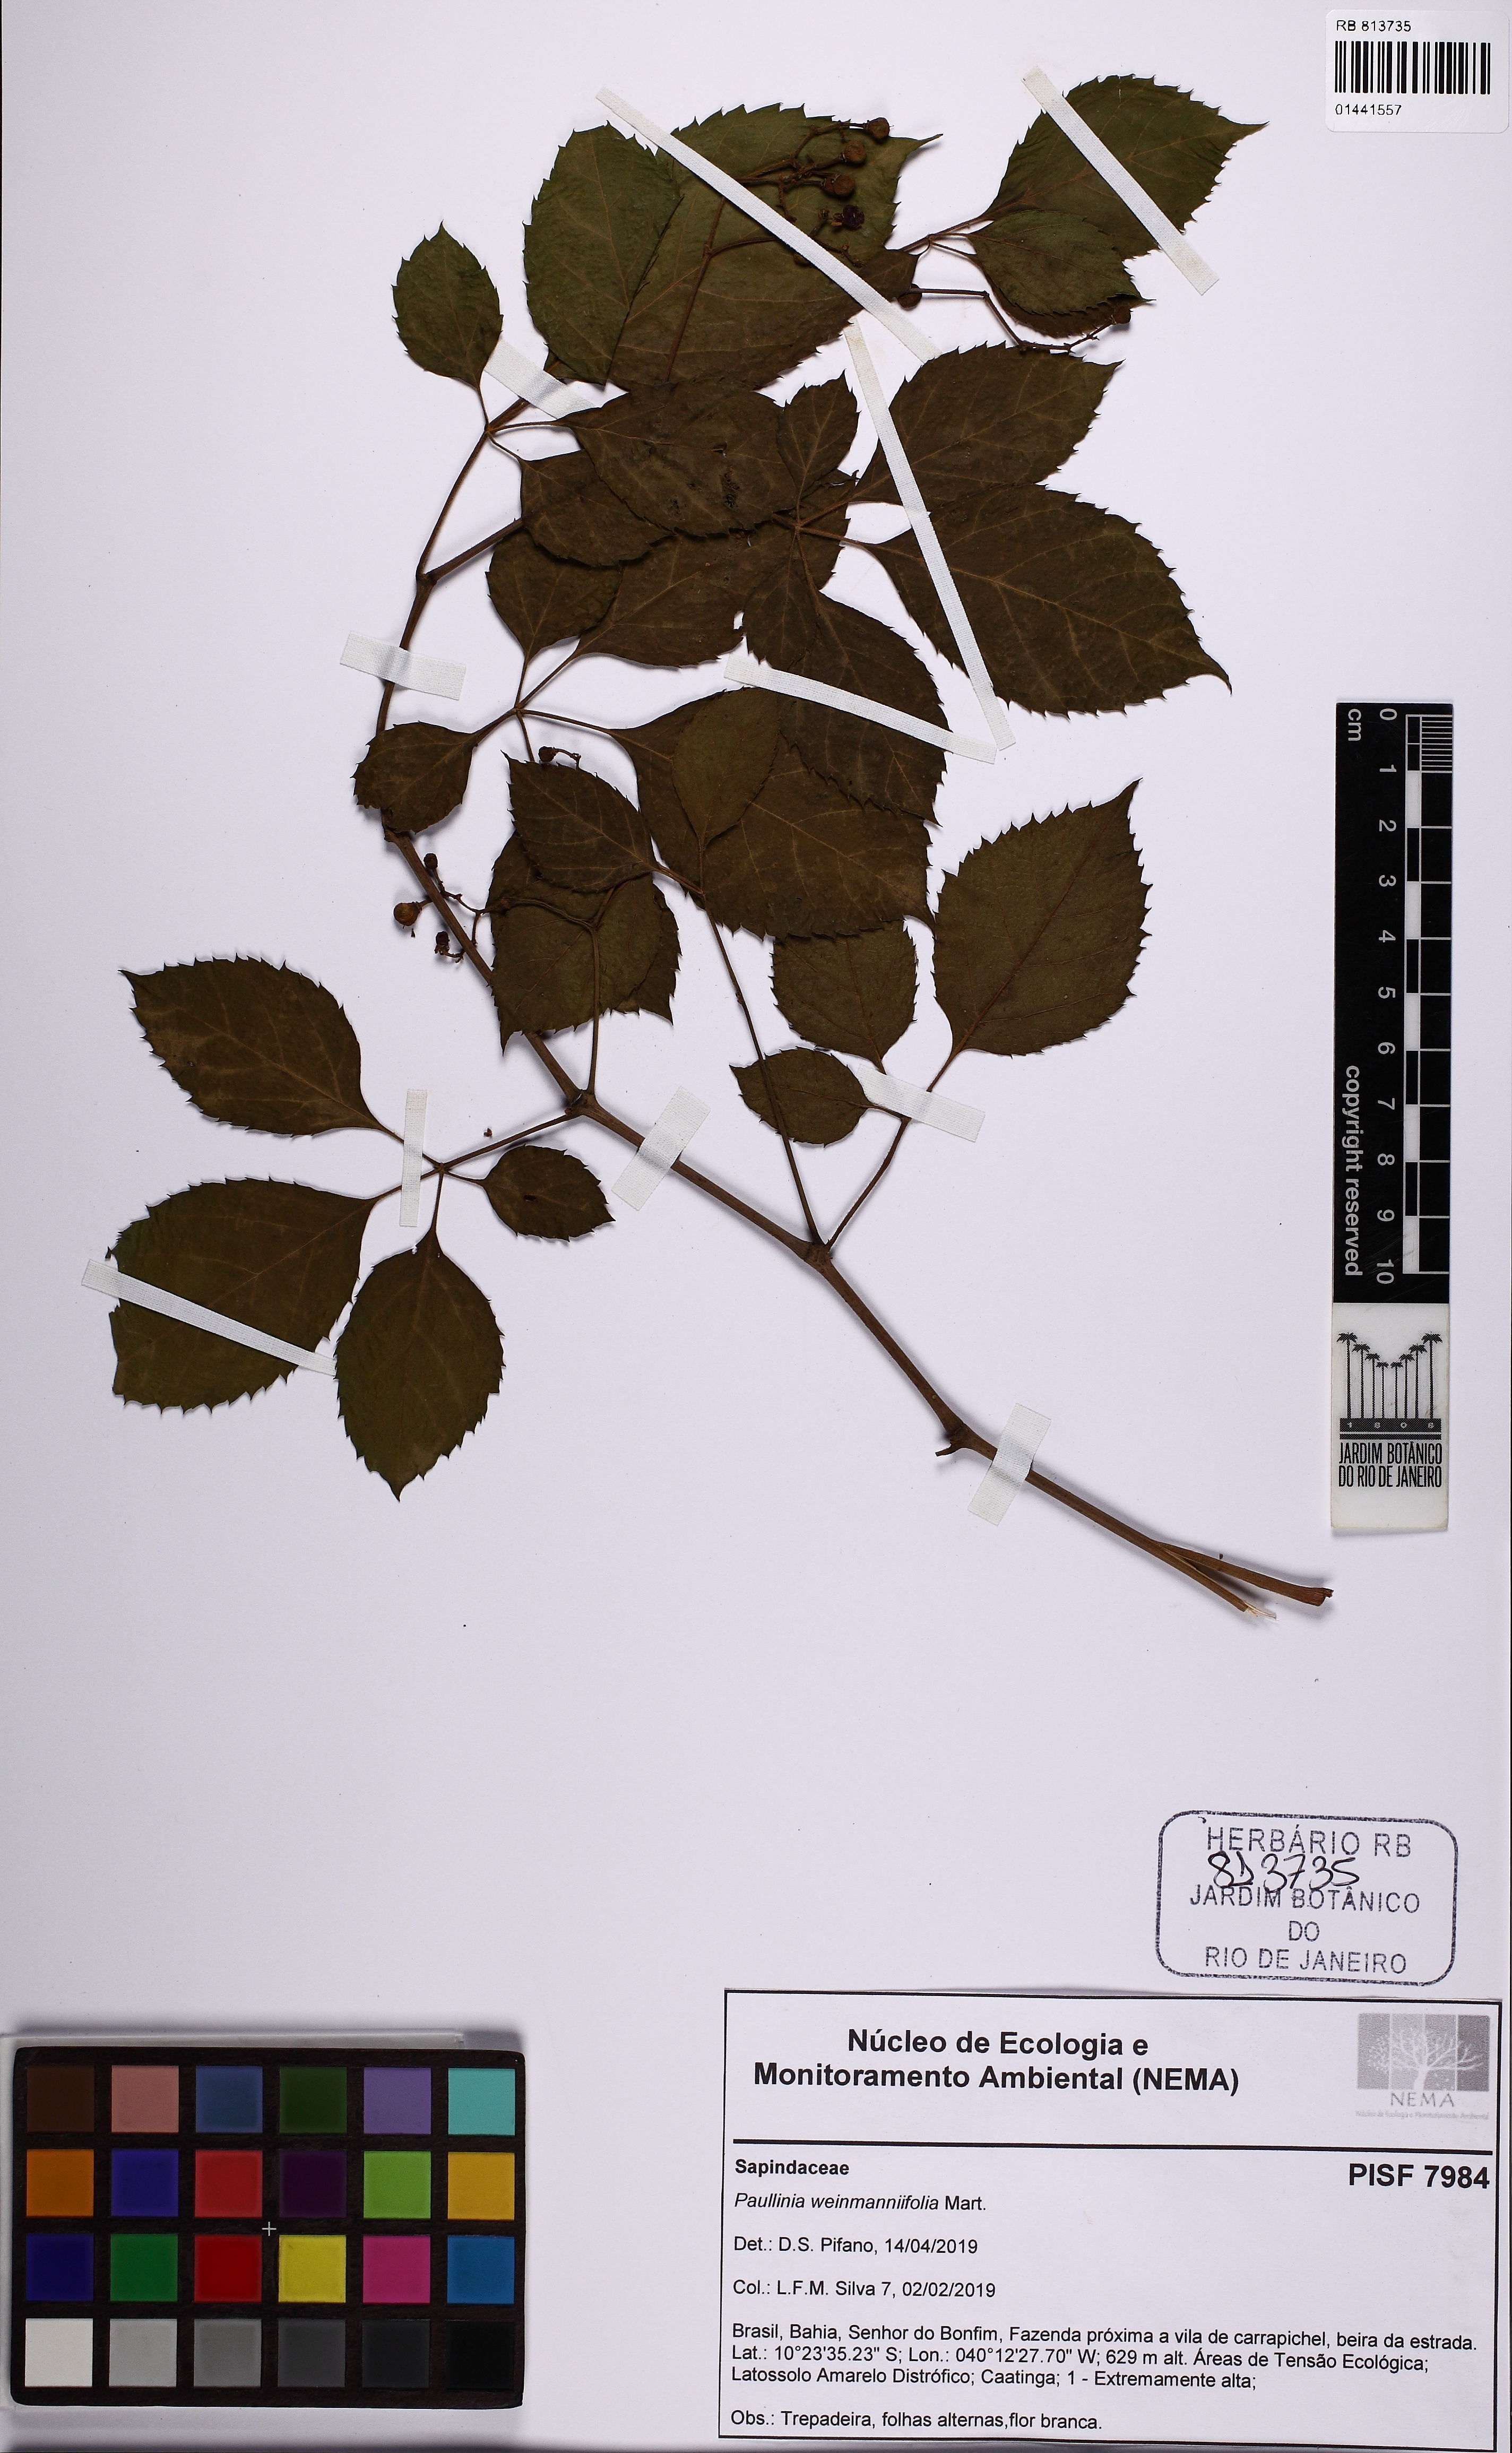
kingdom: Plantae
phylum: Tracheophyta
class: Magnoliopsida
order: Sapindales
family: Sapindaceae
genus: Paullinia
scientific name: Paullinia weinmanniifolia
